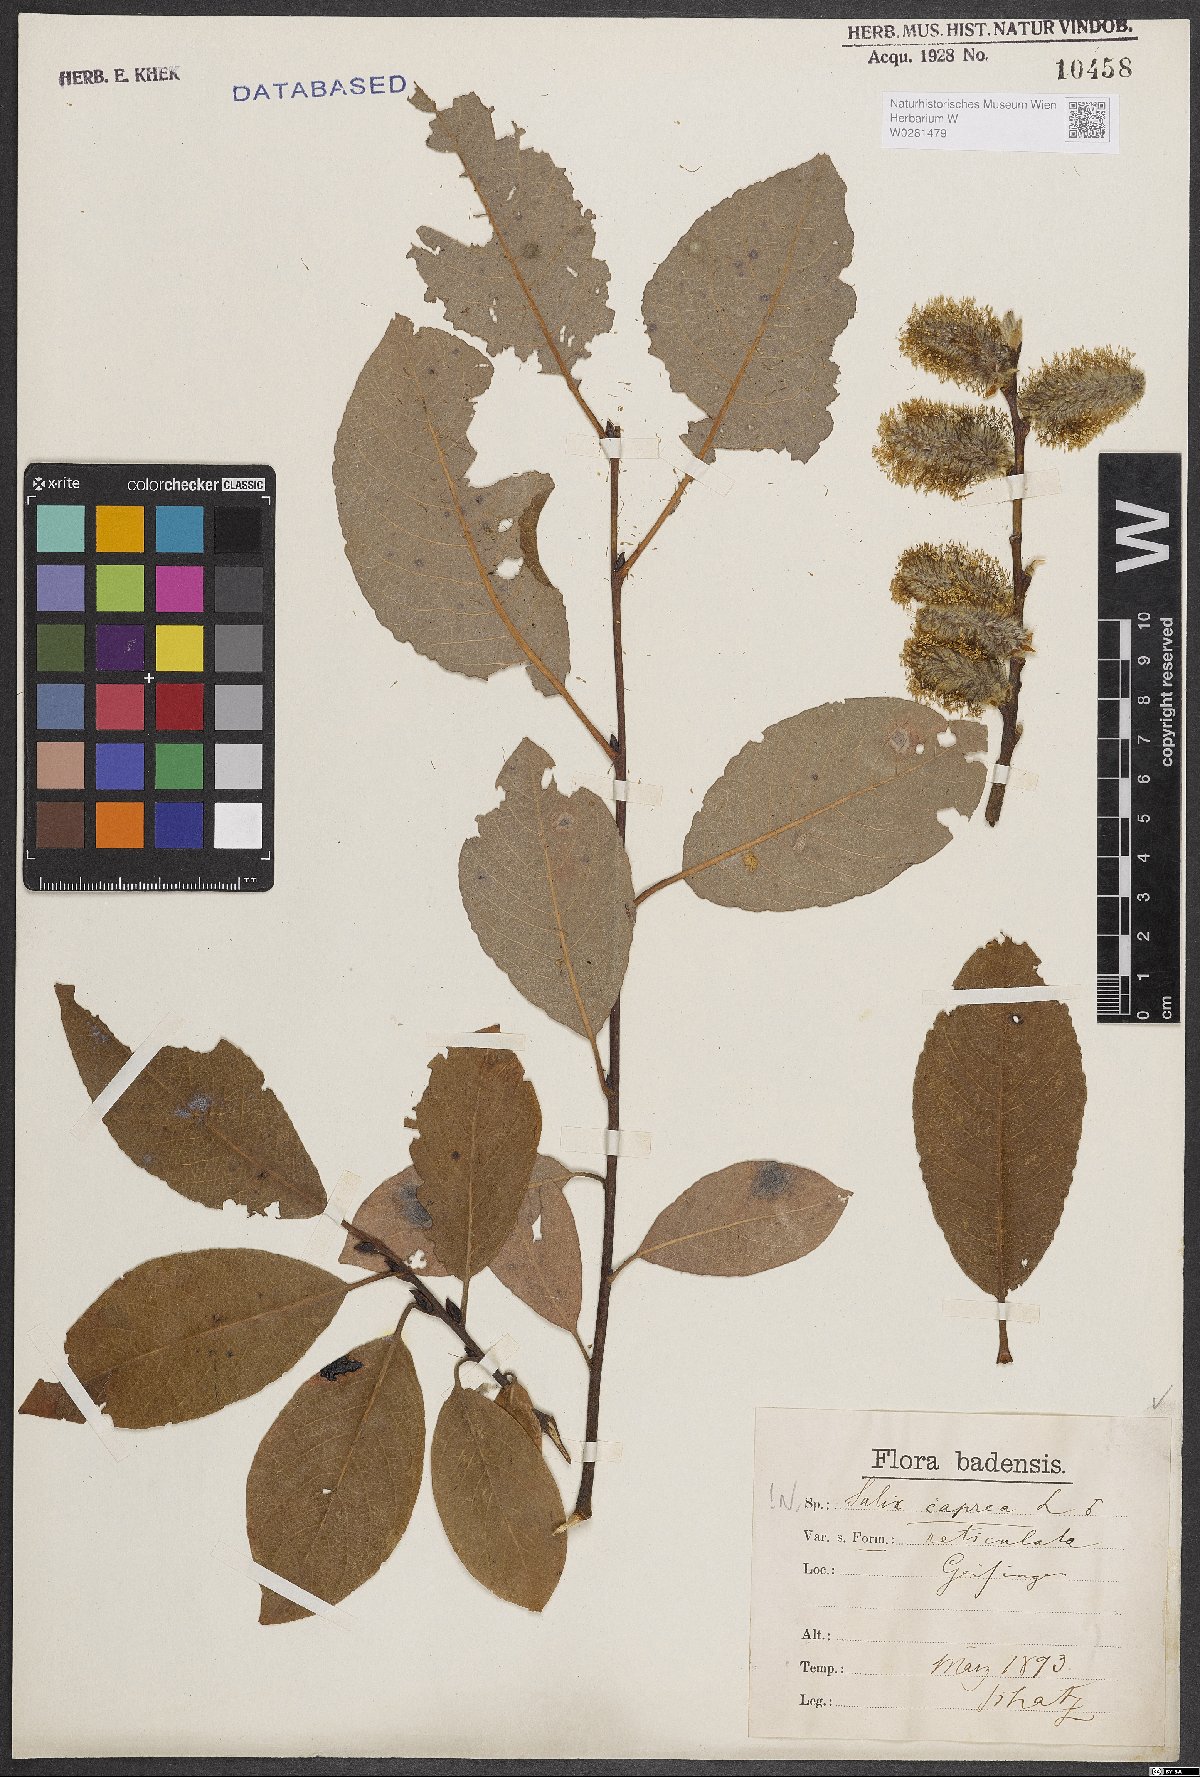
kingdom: Plantae
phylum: Tracheophyta
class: Magnoliopsida
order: Malpighiales
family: Salicaceae
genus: Salix
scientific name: Salix caprea
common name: Goat willow
